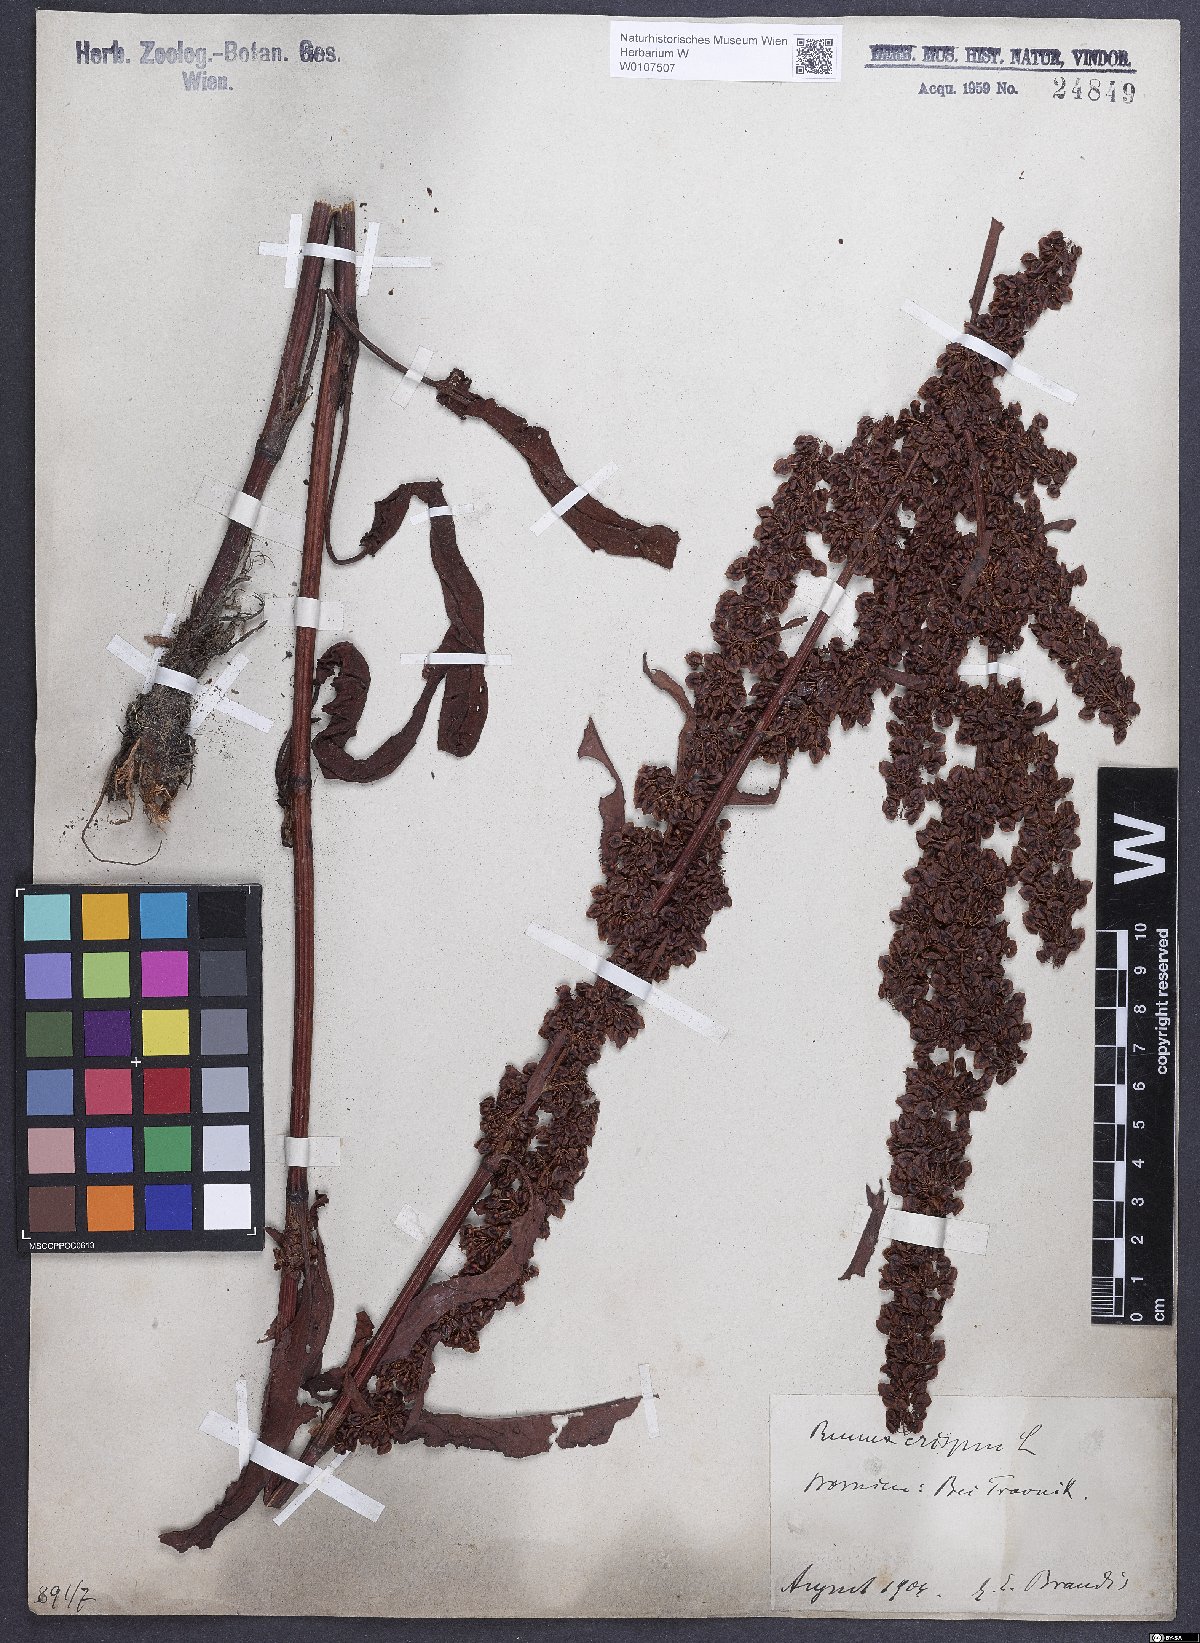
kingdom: Plantae
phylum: Tracheophyta
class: Magnoliopsida
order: Caryophyllales
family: Polygonaceae
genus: Rumex
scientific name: Rumex crispus
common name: Curled dock
